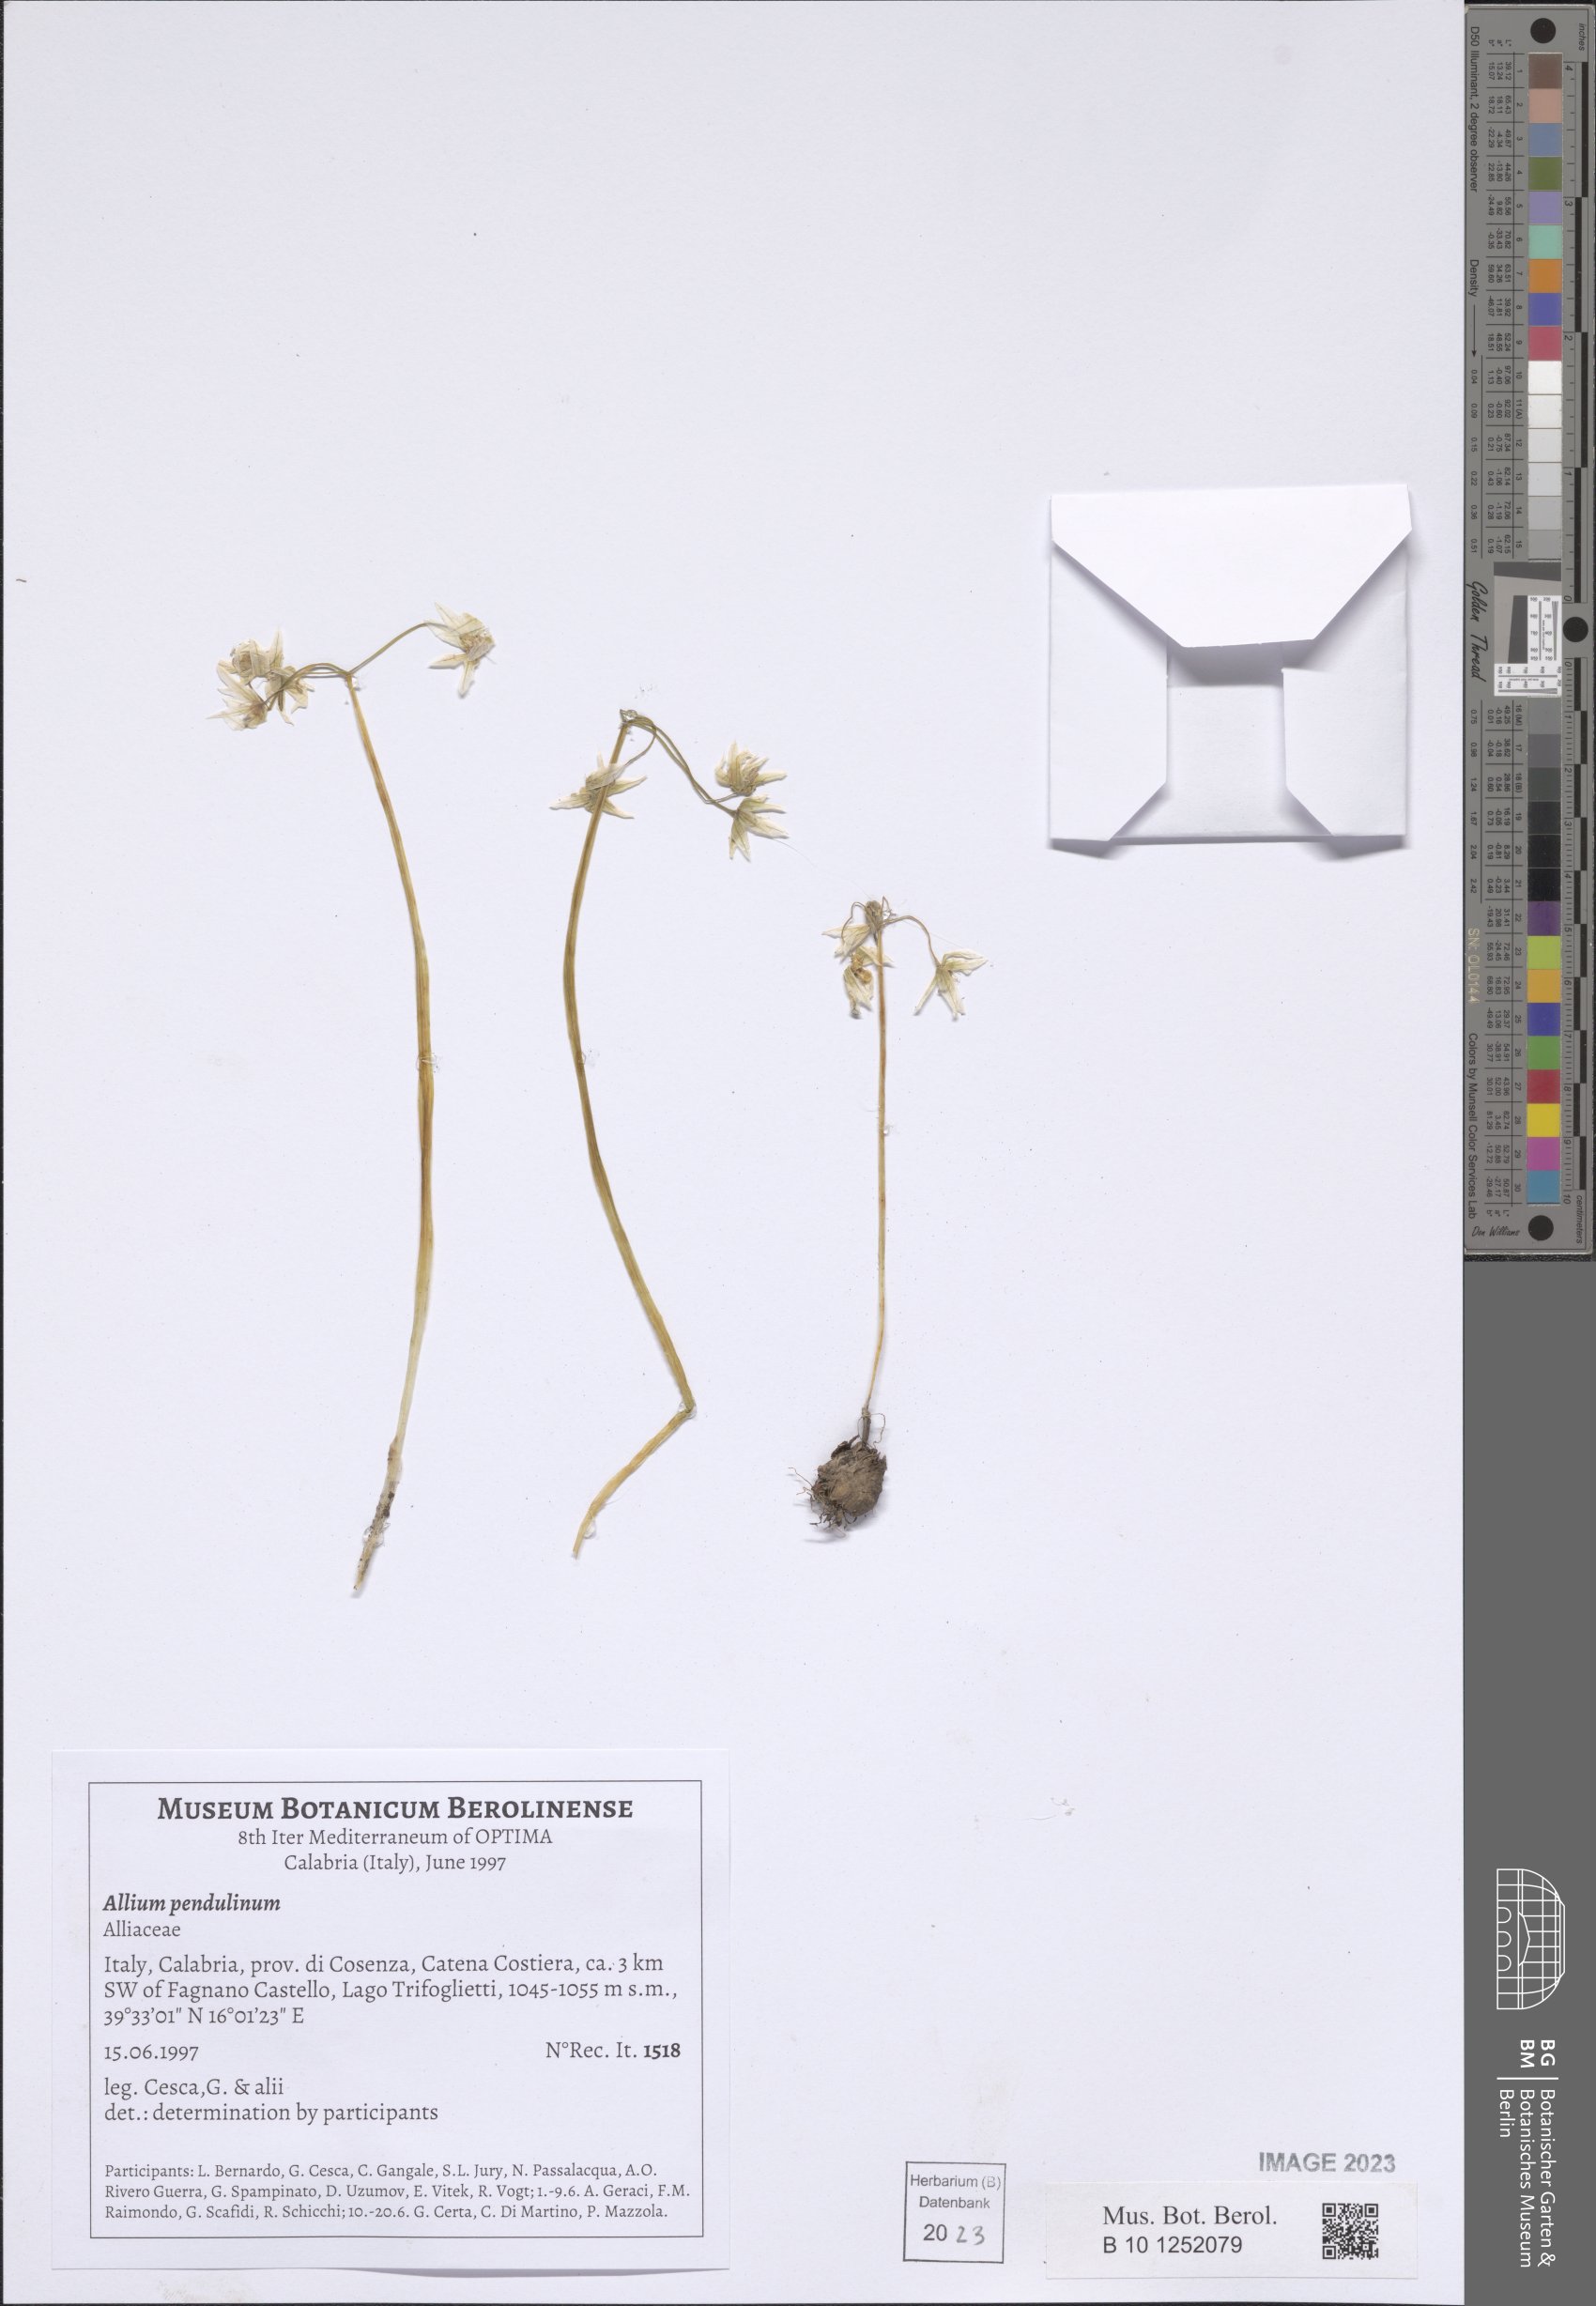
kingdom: Plantae
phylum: Tracheophyta
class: Liliopsida
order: Asparagales
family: Amaryllidaceae
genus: Allium
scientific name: Allium pendulinum
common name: Italian garlic
